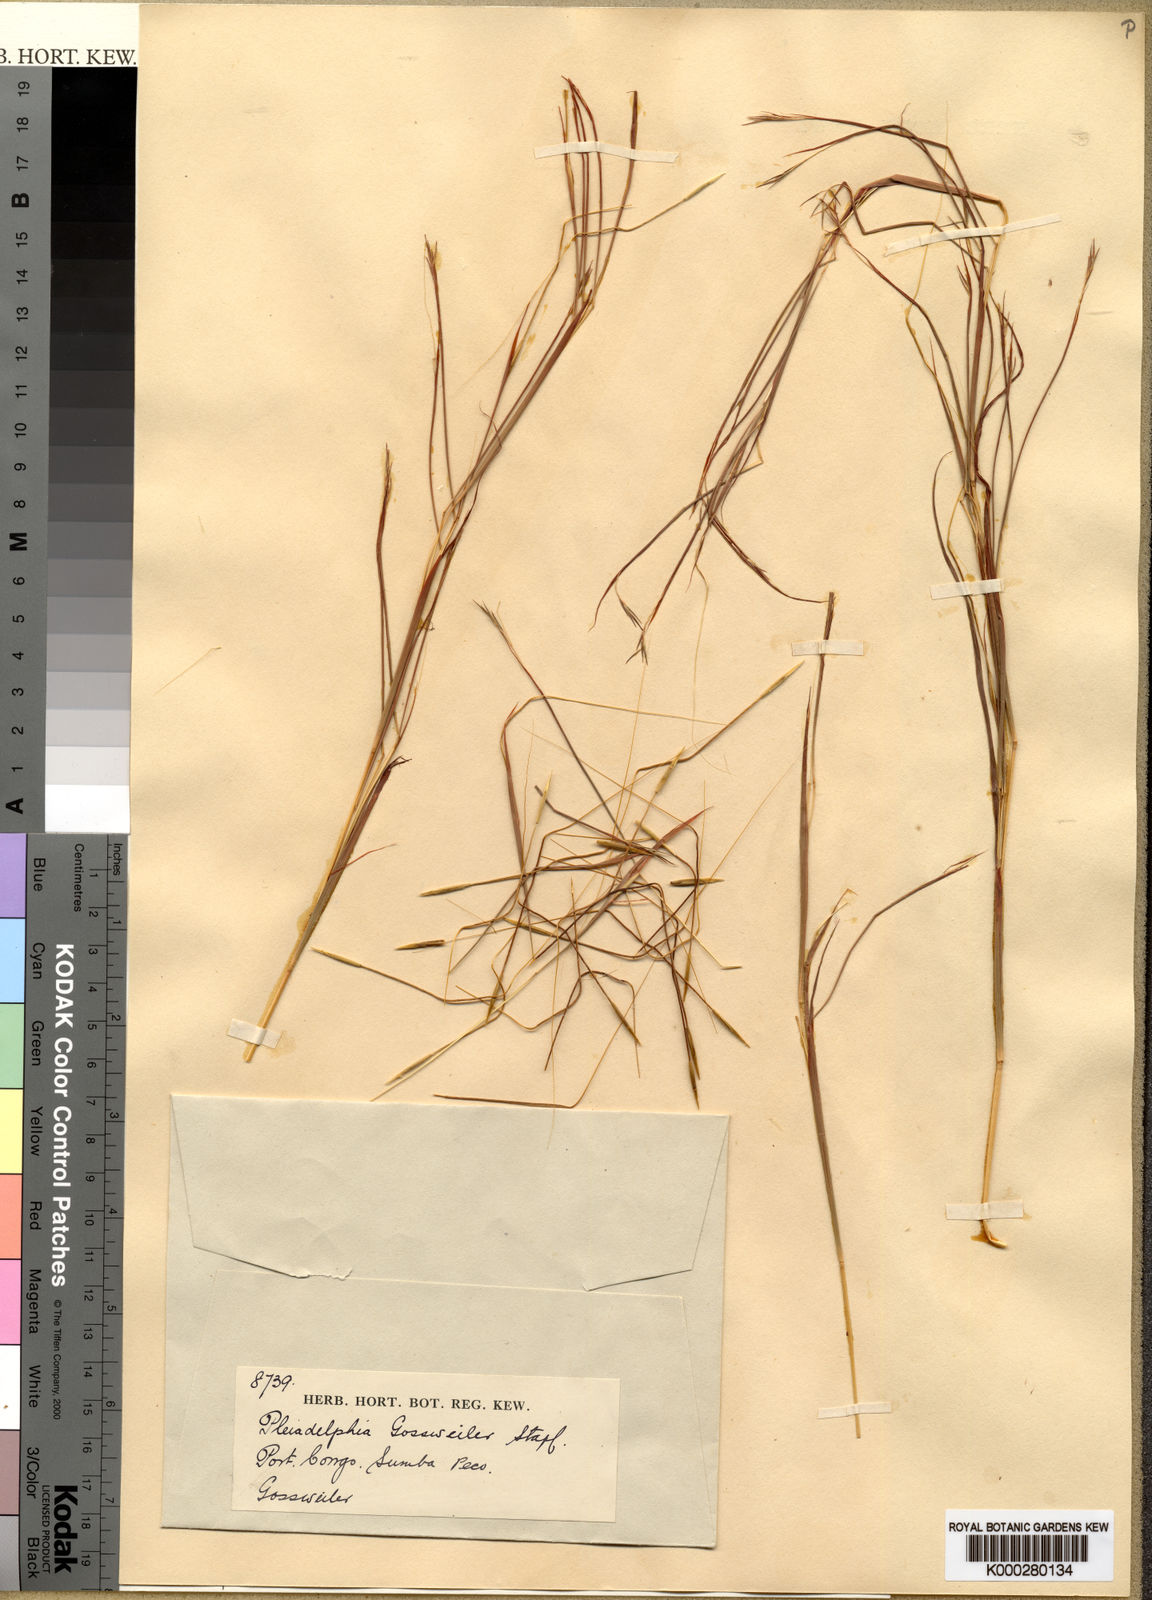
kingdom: Plantae
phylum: Tracheophyta
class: Liliopsida
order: Poales
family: Poaceae
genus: Elymandra
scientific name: Elymandra gossweileri
